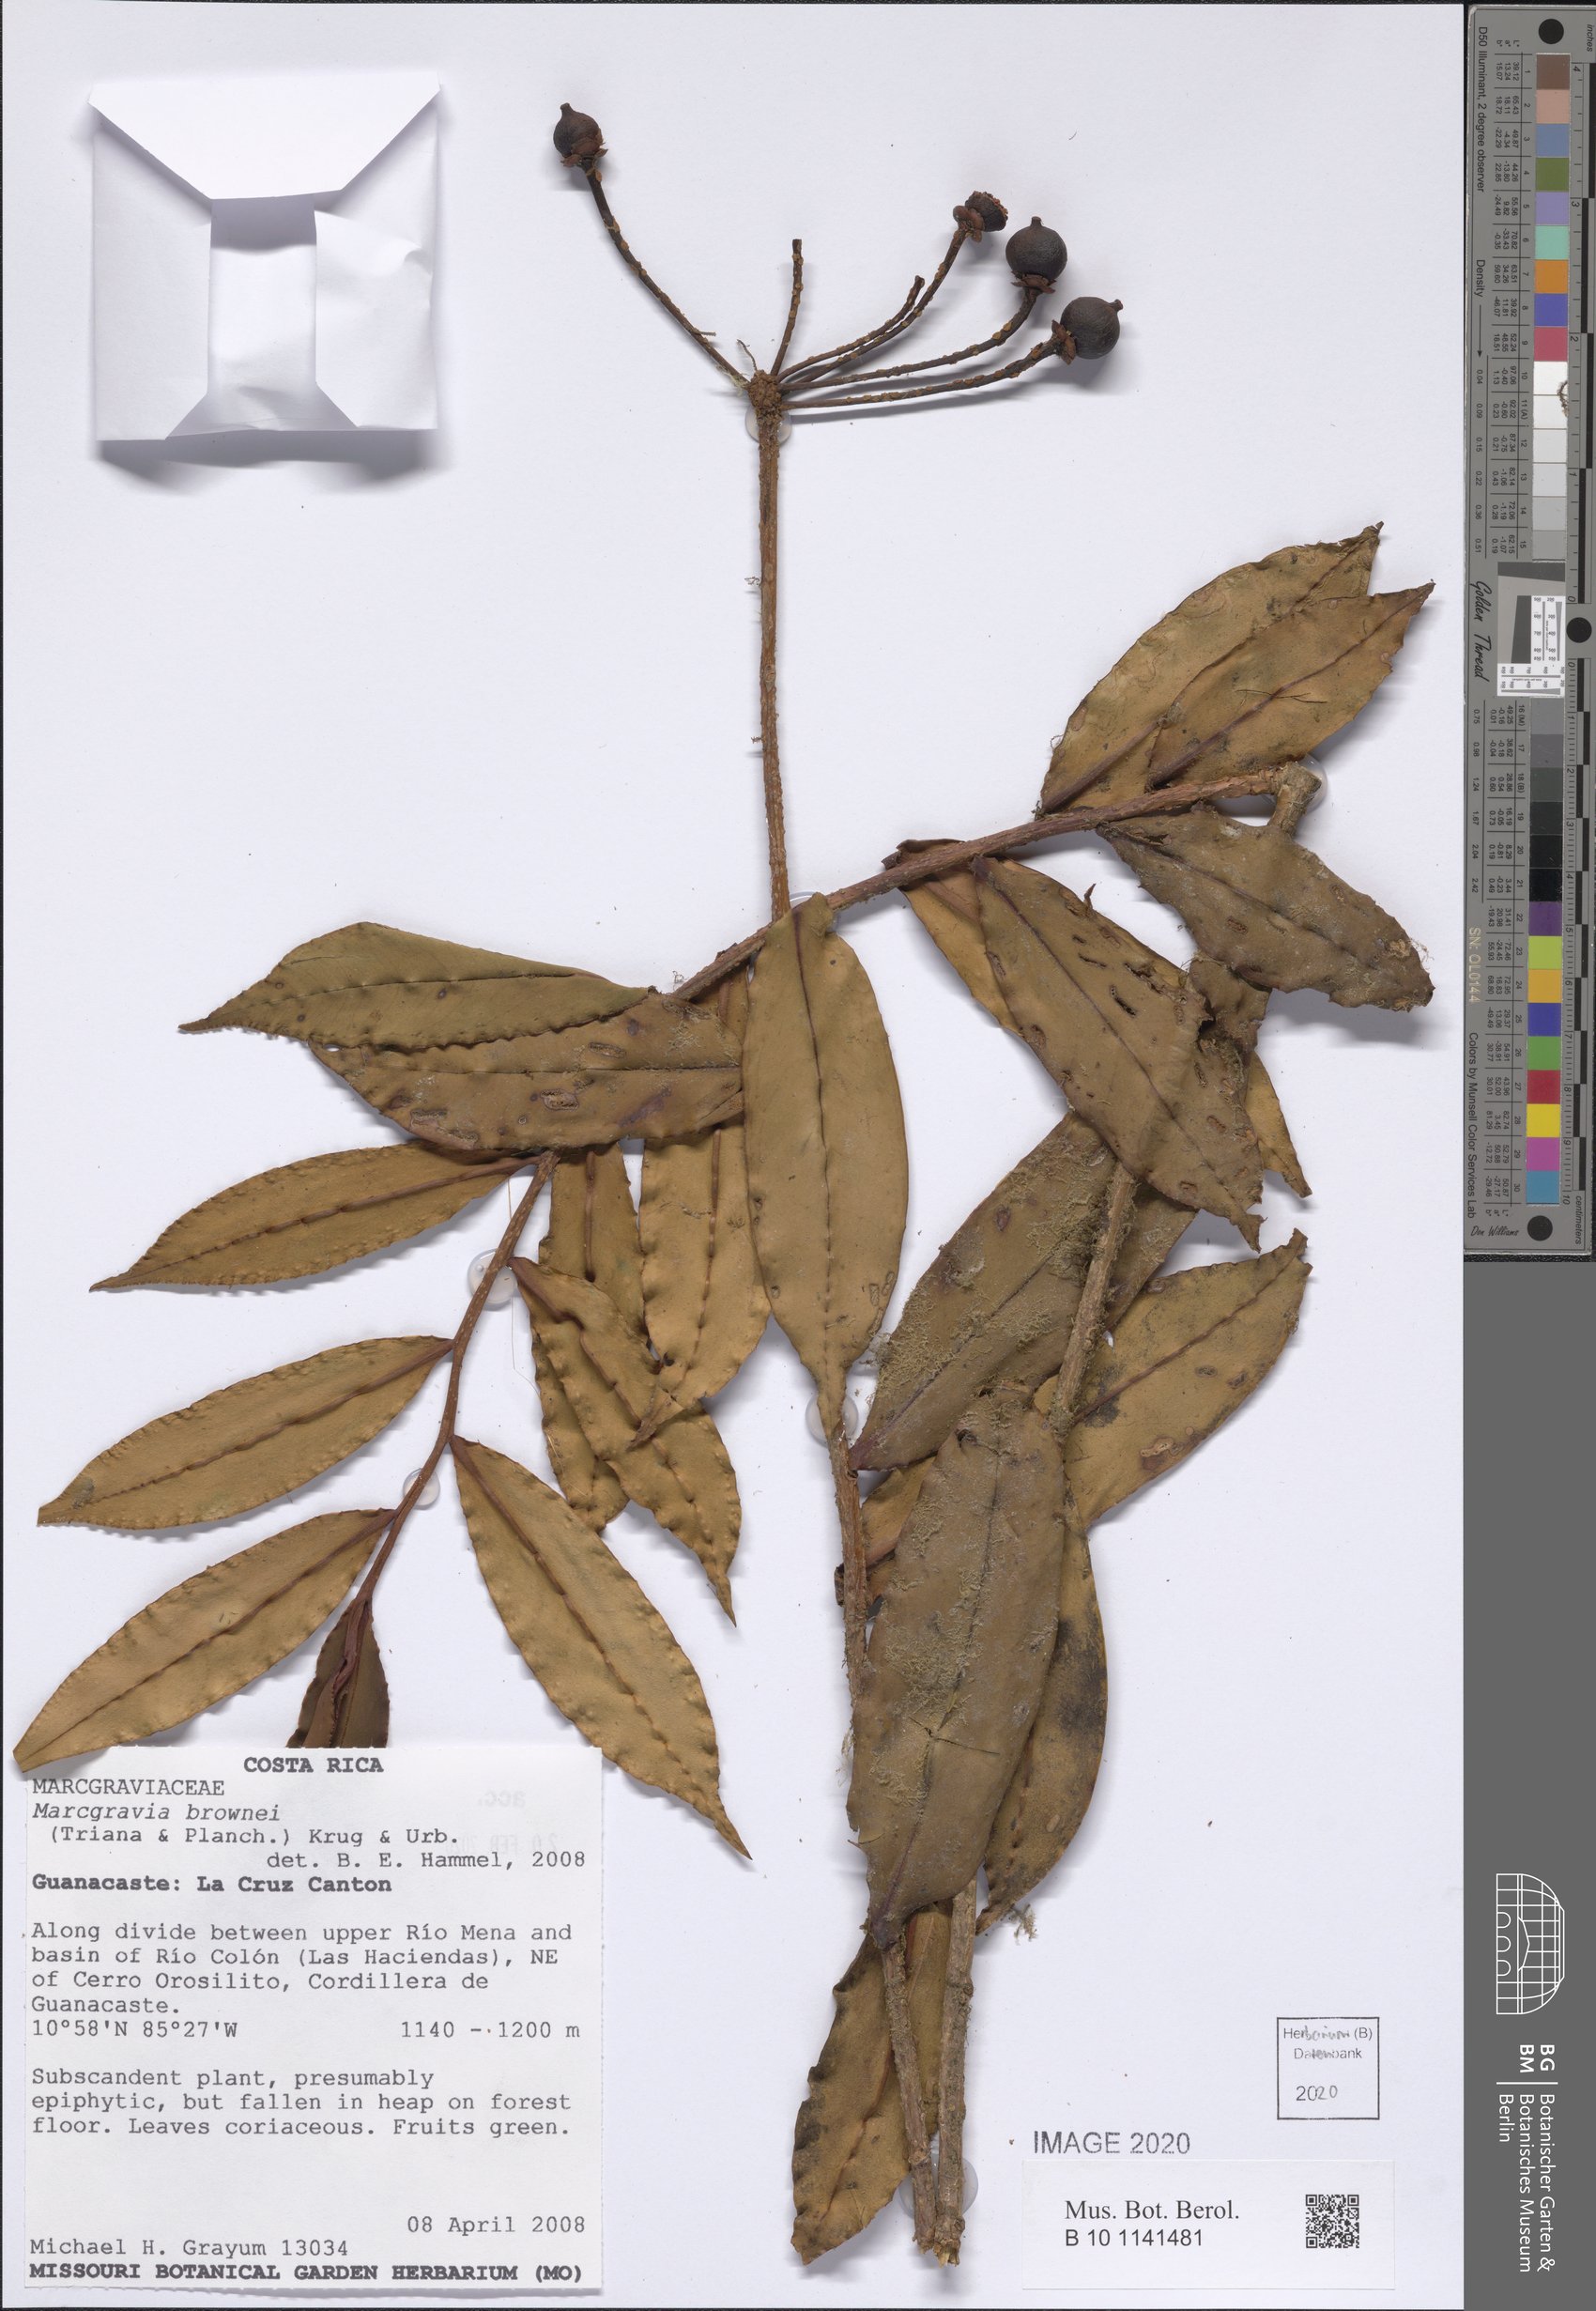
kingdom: Plantae
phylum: Tracheophyta
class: Magnoliopsida
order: Ericales
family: Marcgraviaceae
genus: Marcgravia
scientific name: Marcgravia brownei
